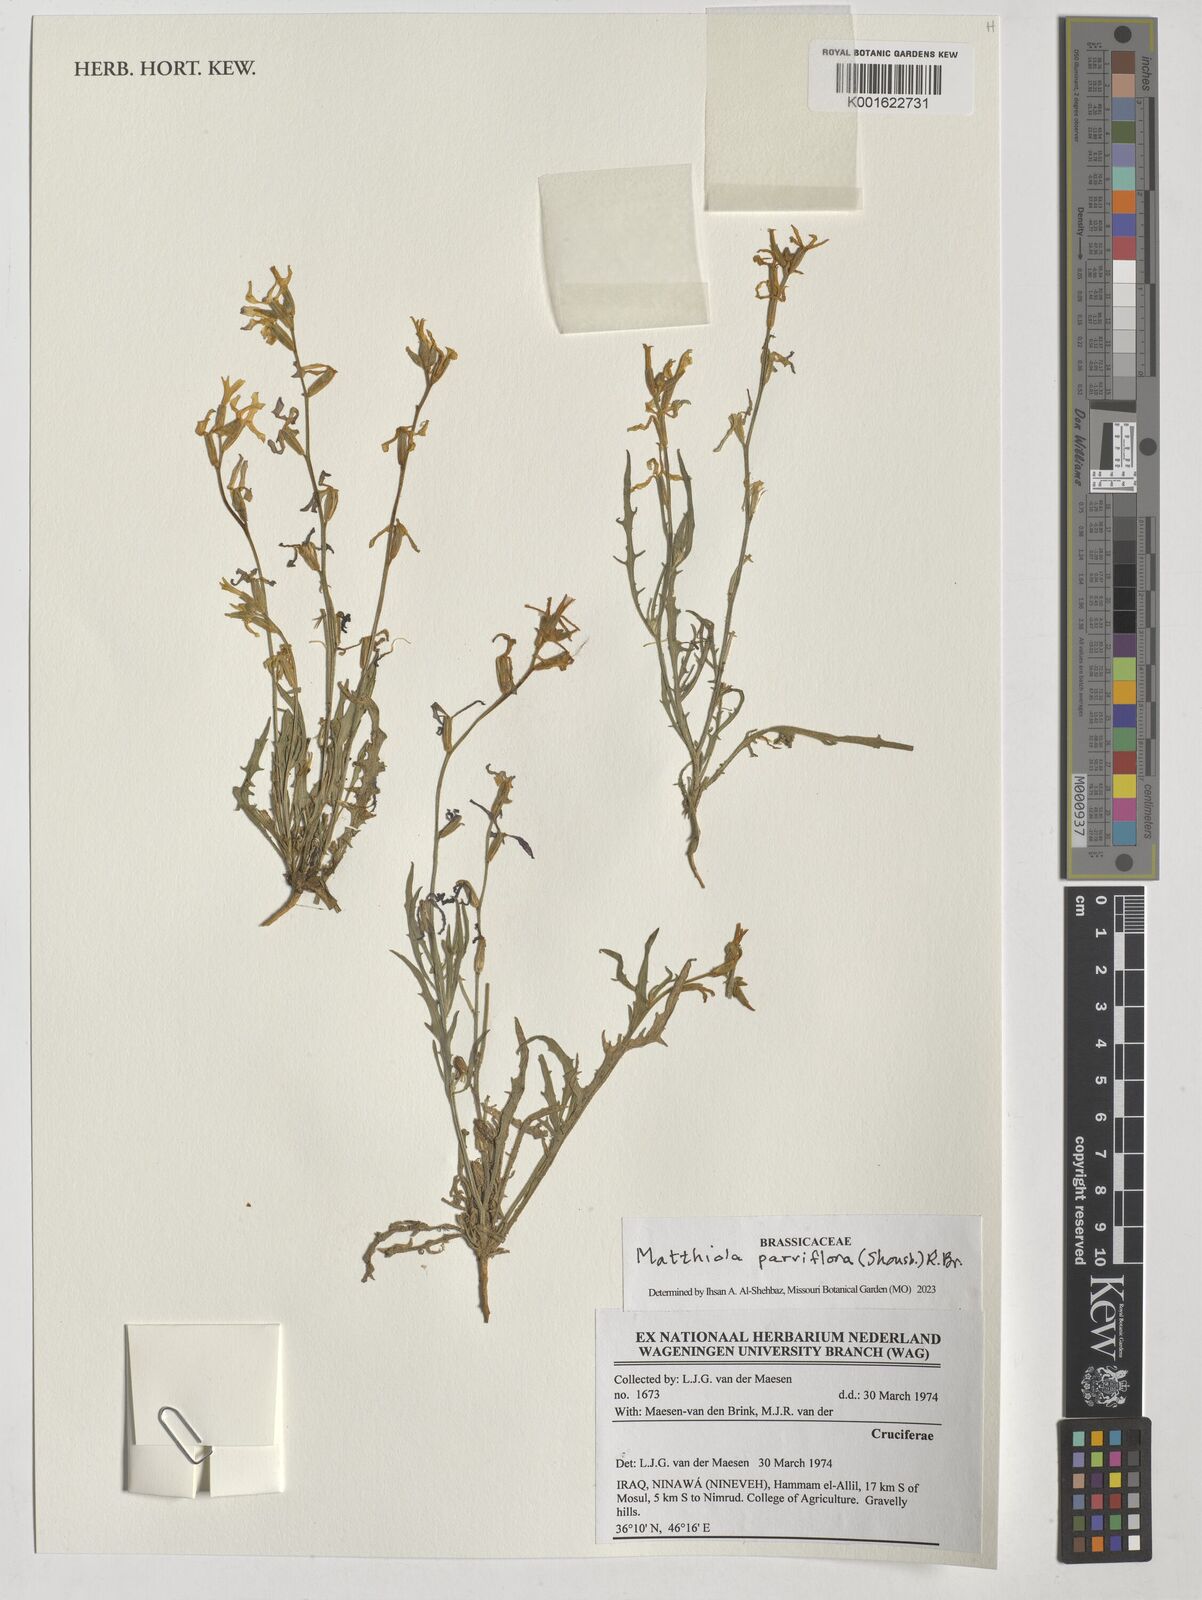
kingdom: Plantae
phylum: Tracheophyta
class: Magnoliopsida
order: Brassicales
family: Brassicaceae
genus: Matthiola
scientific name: Matthiola parviflora
